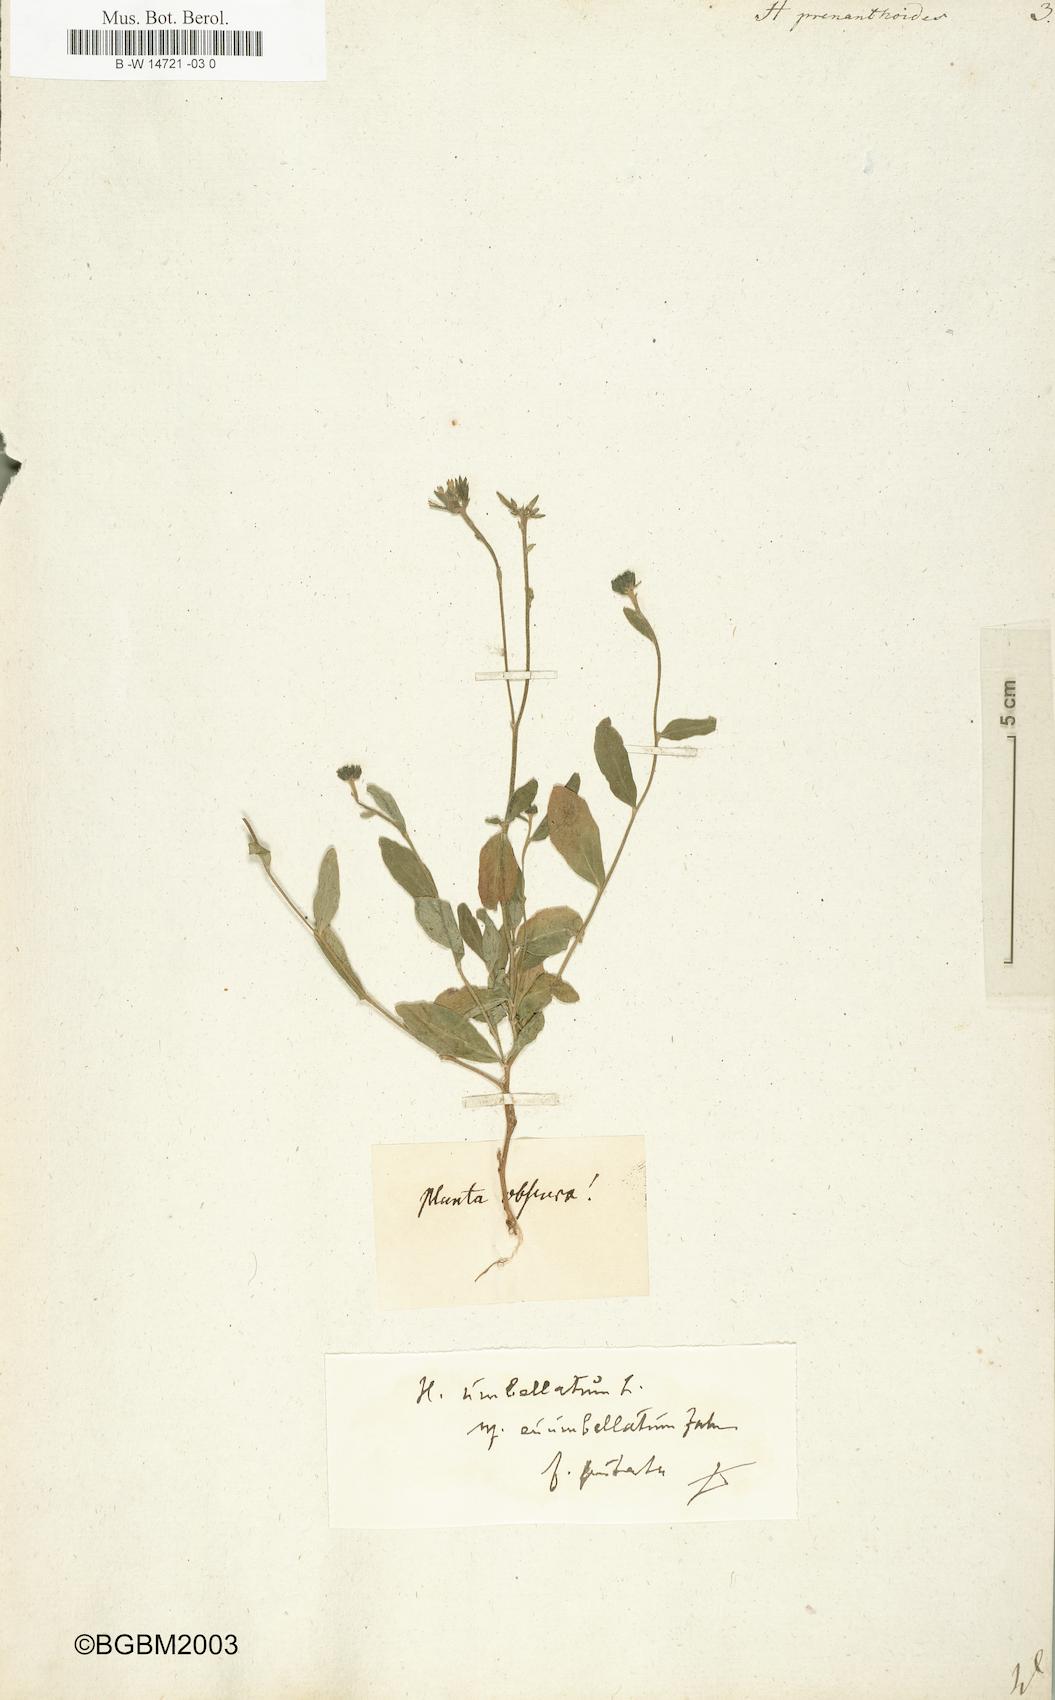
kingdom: Plantae
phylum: Tracheophyta
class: Magnoliopsida
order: Asterales
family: Asteraceae
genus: Hieracium
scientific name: Hieracium prenanthoides
